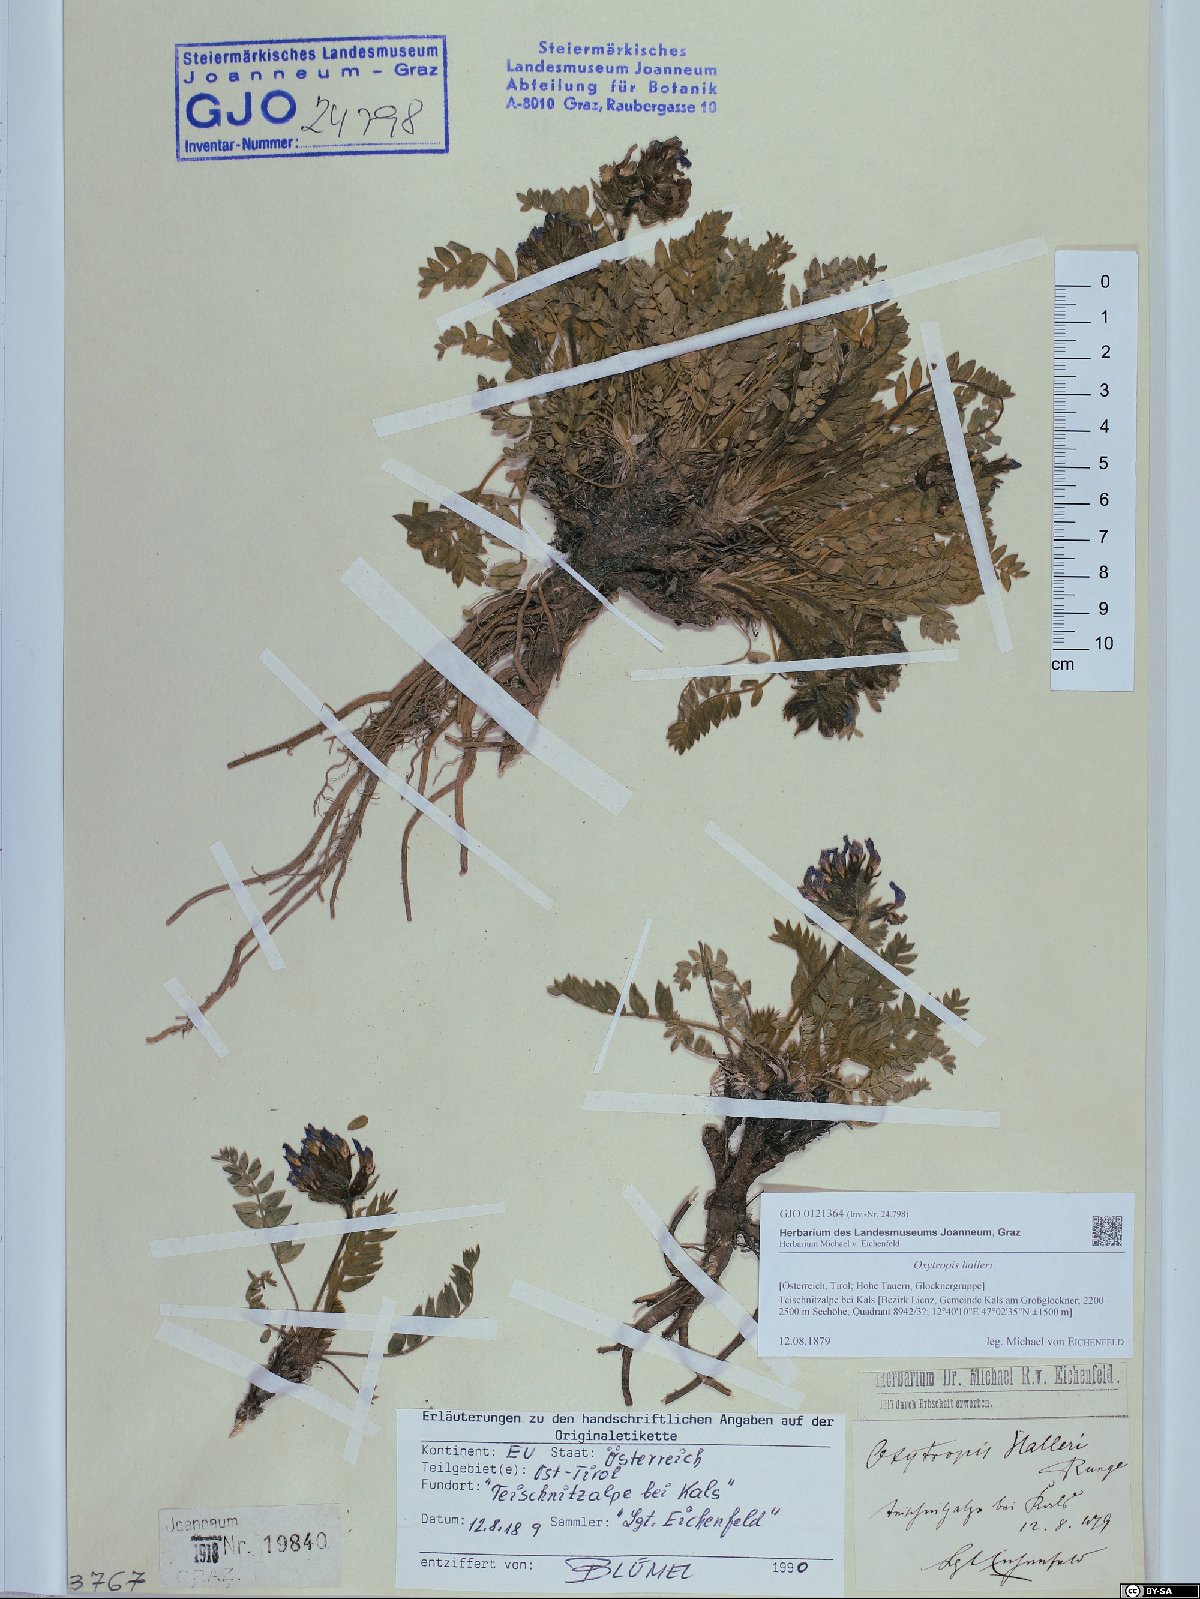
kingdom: Plantae
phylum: Tracheophyta
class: Magnoliopsida
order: Fabales
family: Fabaceae
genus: Oxytropis
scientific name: Oxytropis halleri
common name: Purple oxytropis
